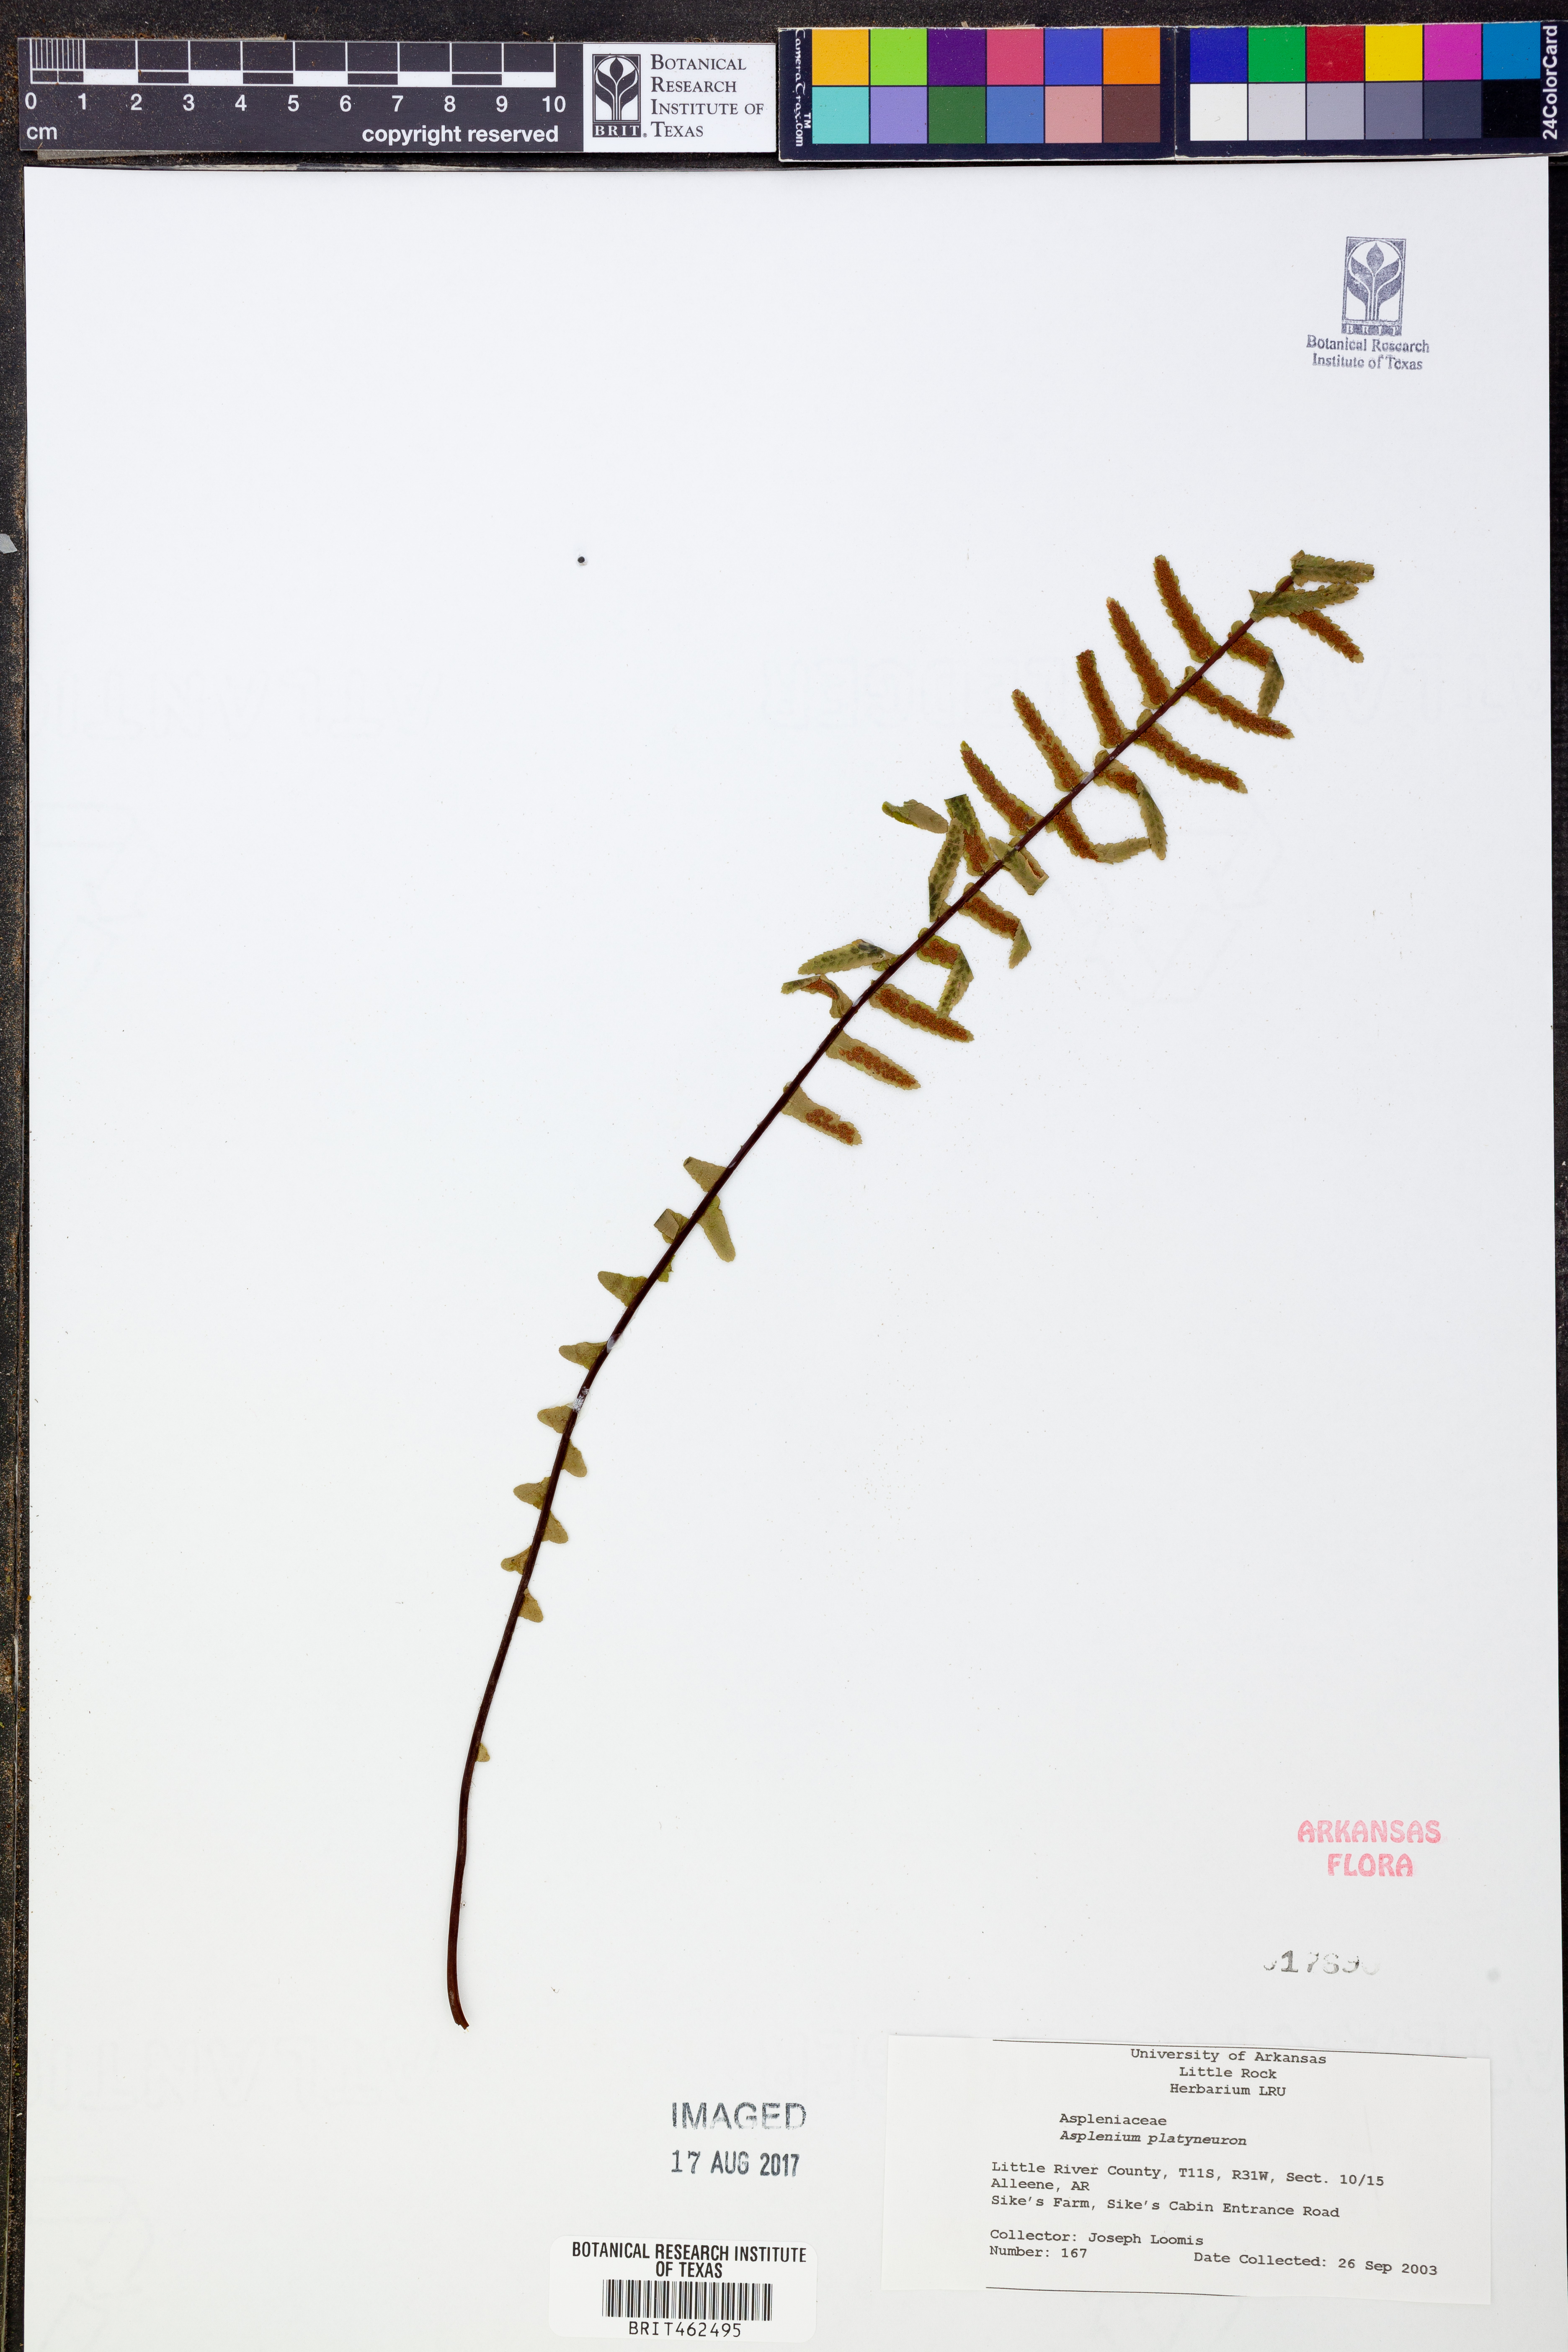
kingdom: Plantae
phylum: Tracheophyta
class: Polypodiopsida
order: Polypodiales
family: Aspleniaceae
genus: Asplenium
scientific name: Asplenium platyneuron
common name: Ebony spleenwort
